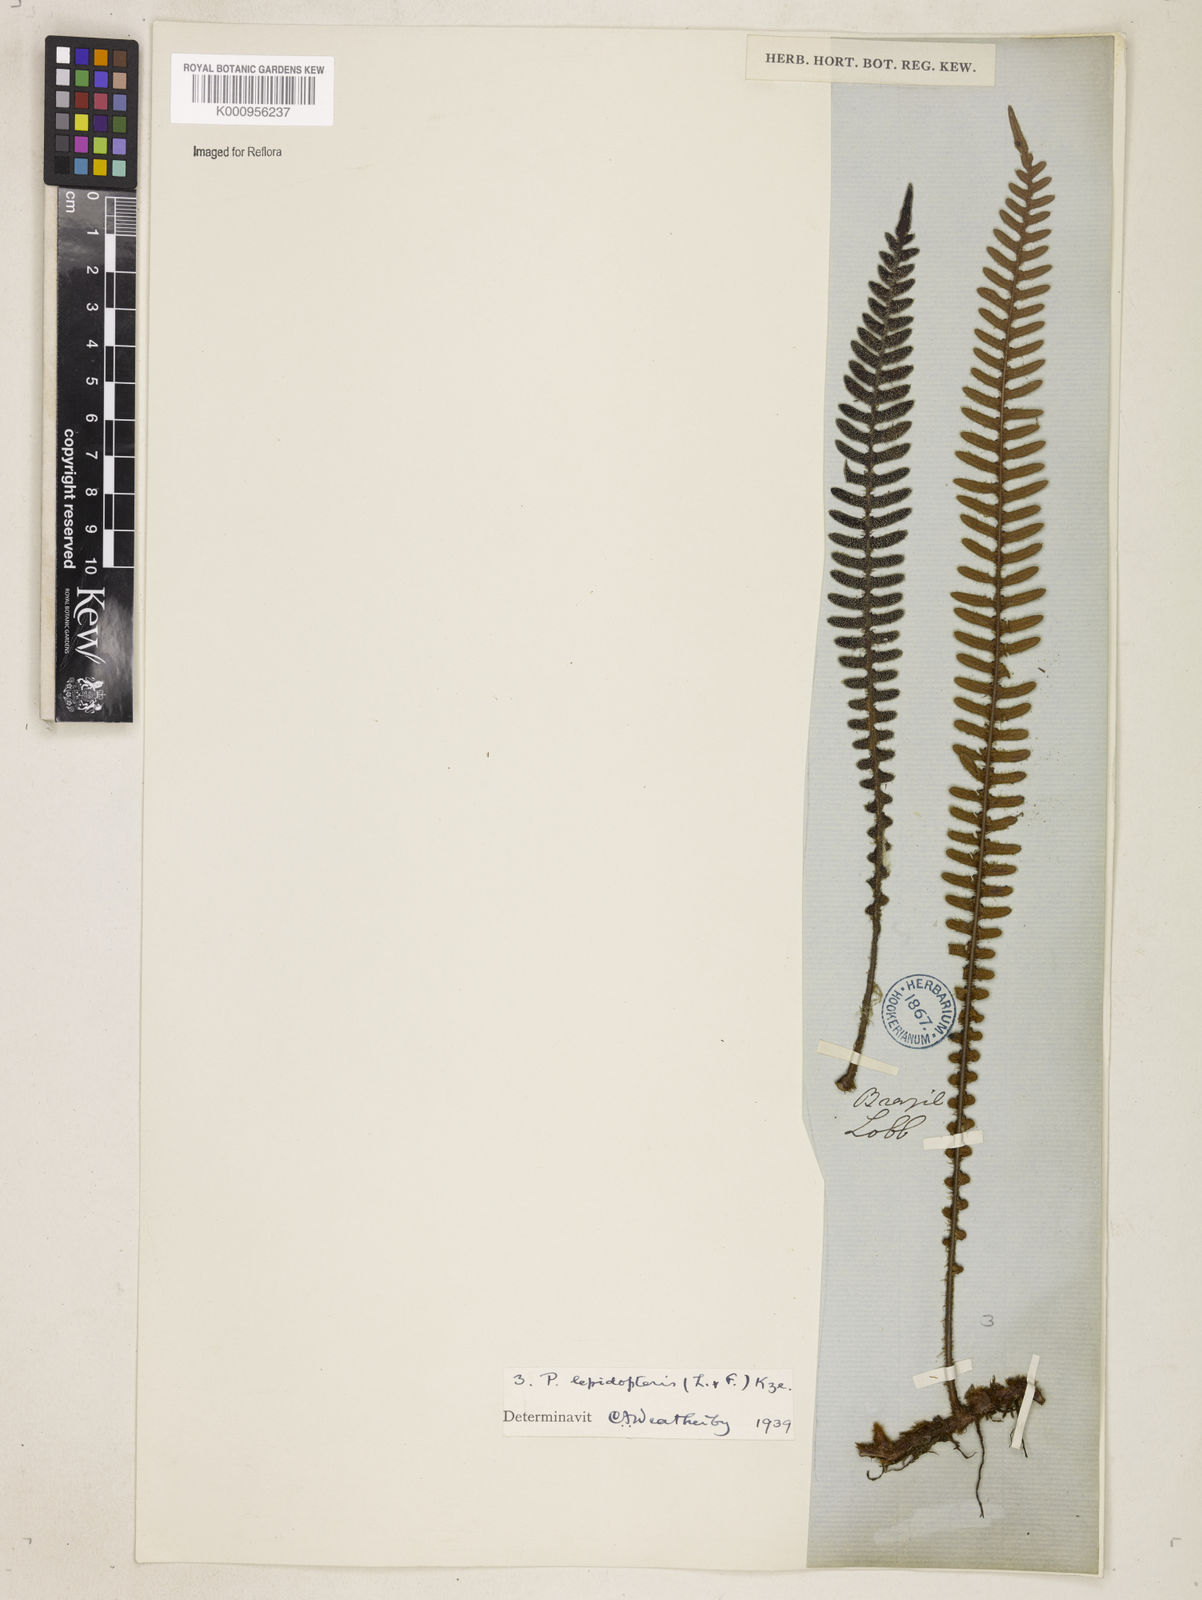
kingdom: Plantae
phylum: Tracheophyta
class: Polypodiopsida
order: Polypodiales
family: Polypodiaceae
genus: Pleopeltis
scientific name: Pleopeltis hirsutissima
